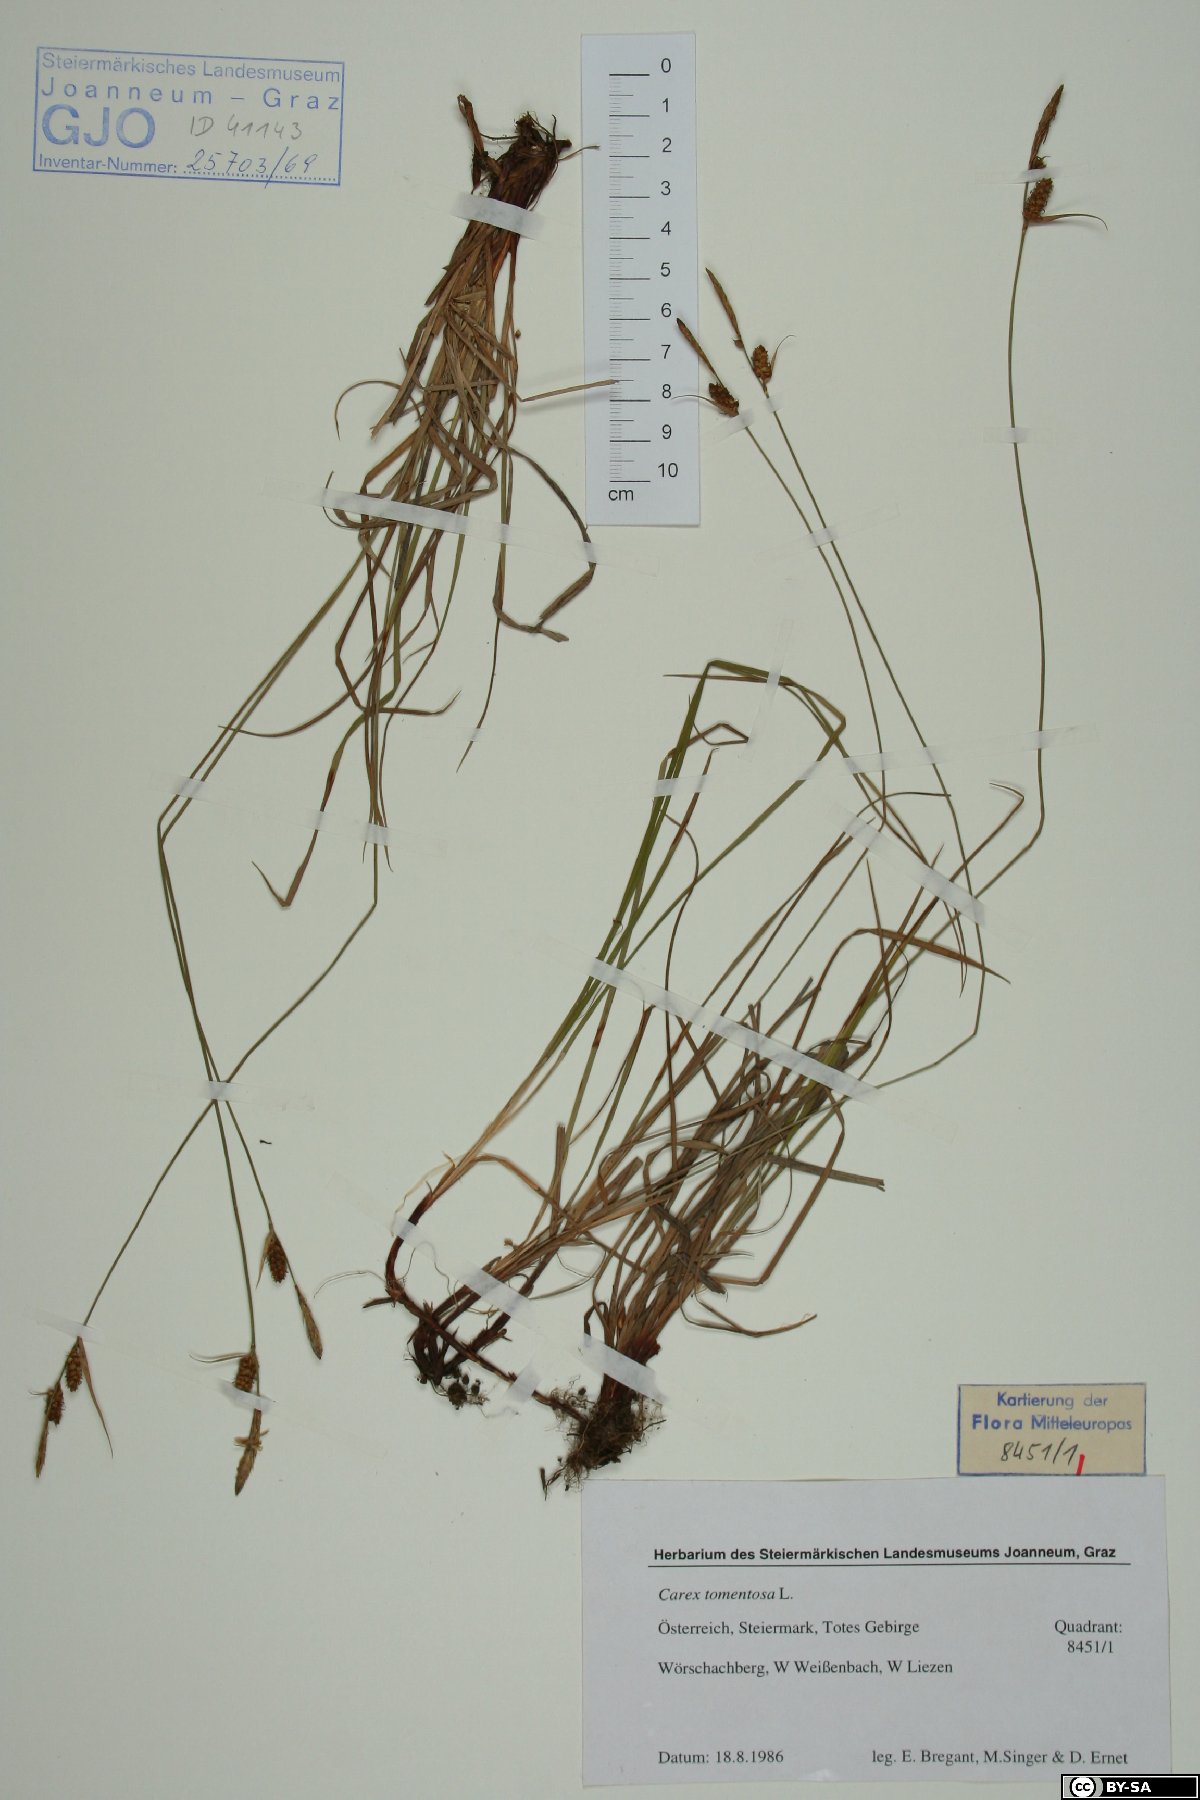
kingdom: Plantae
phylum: Tracheophyta
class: Liliopsida
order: Poales
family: Cyperaceae
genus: Carex
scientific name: Carex tomentosa
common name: Downy-fruited sedge
